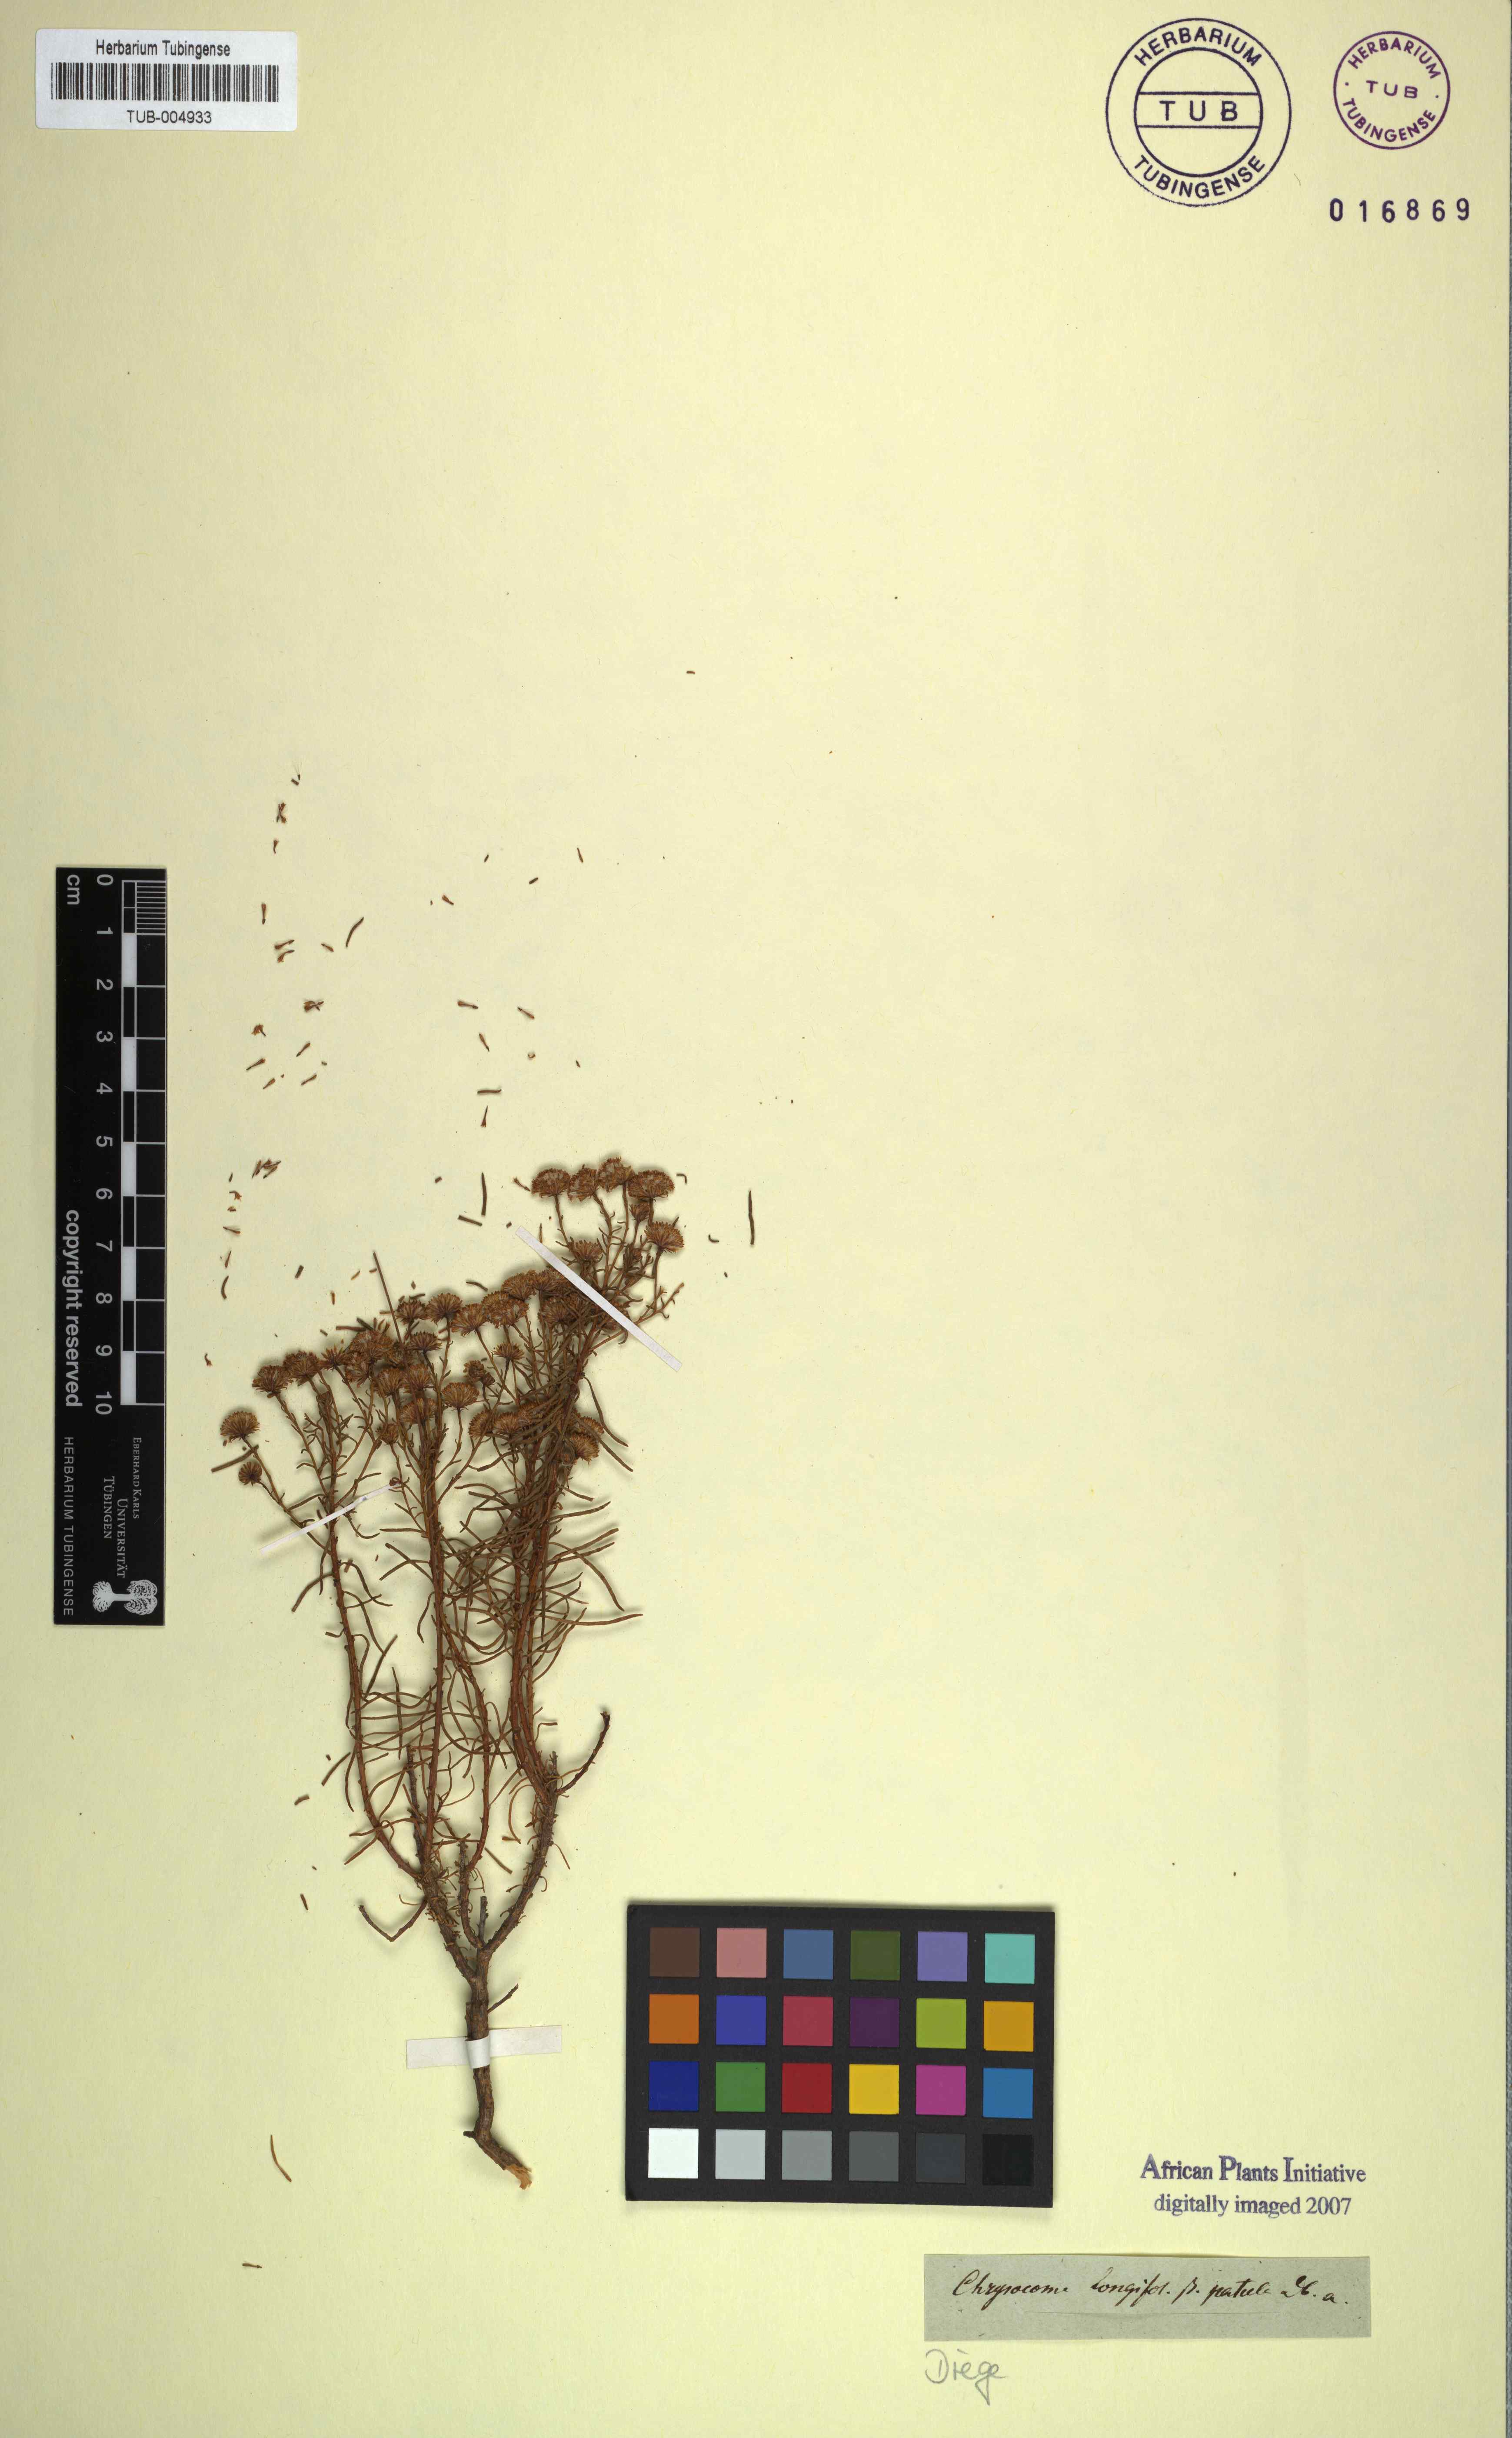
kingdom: Plantae
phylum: Tracheophyta
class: Magnoliopsida
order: Asterales
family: Asteraceae
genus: Chrysocoma
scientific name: Chrysocoma longifolia
